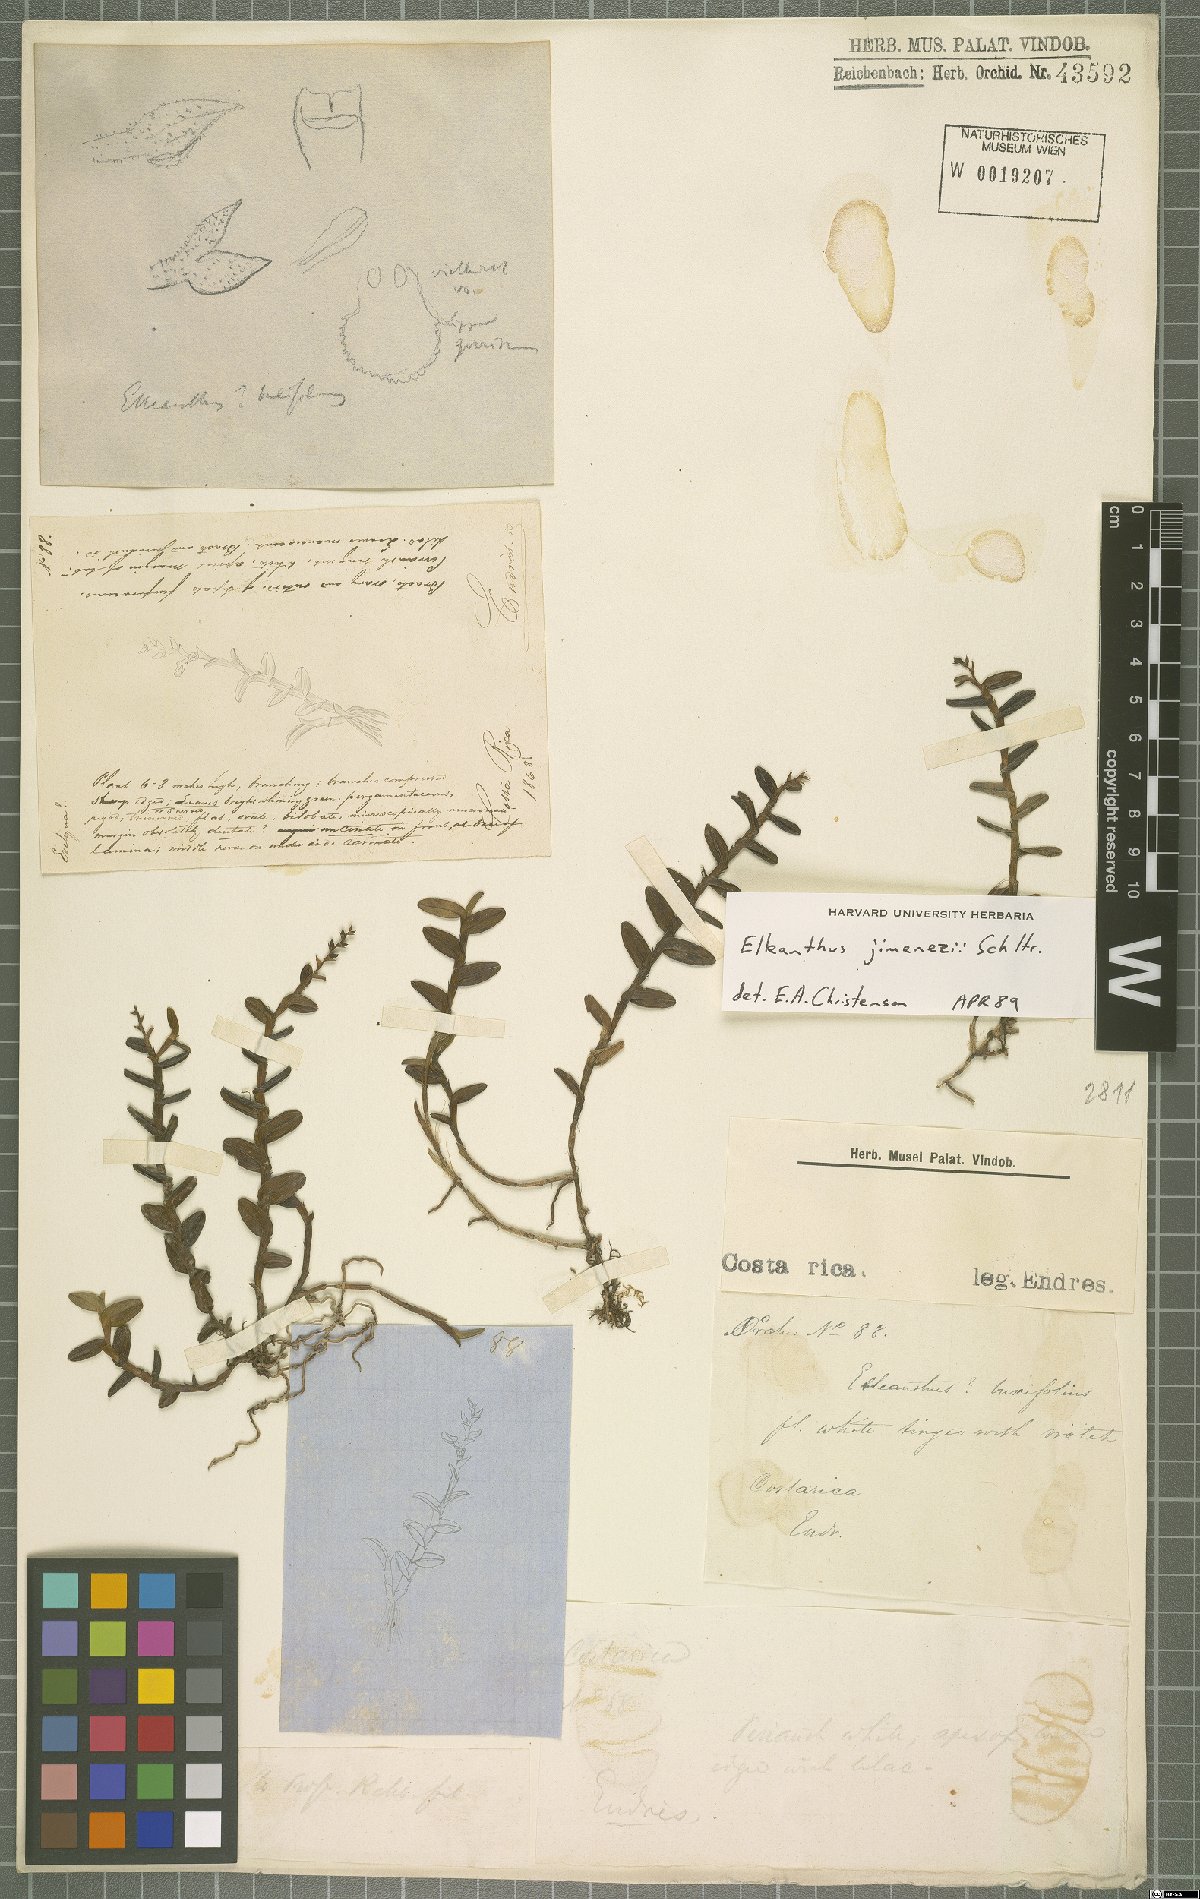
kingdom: Plantae
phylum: Tracheophyta
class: Liliopsida
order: Asparagales
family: Orchidaceae
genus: Elleanthus
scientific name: Elleanthus jimenezii
